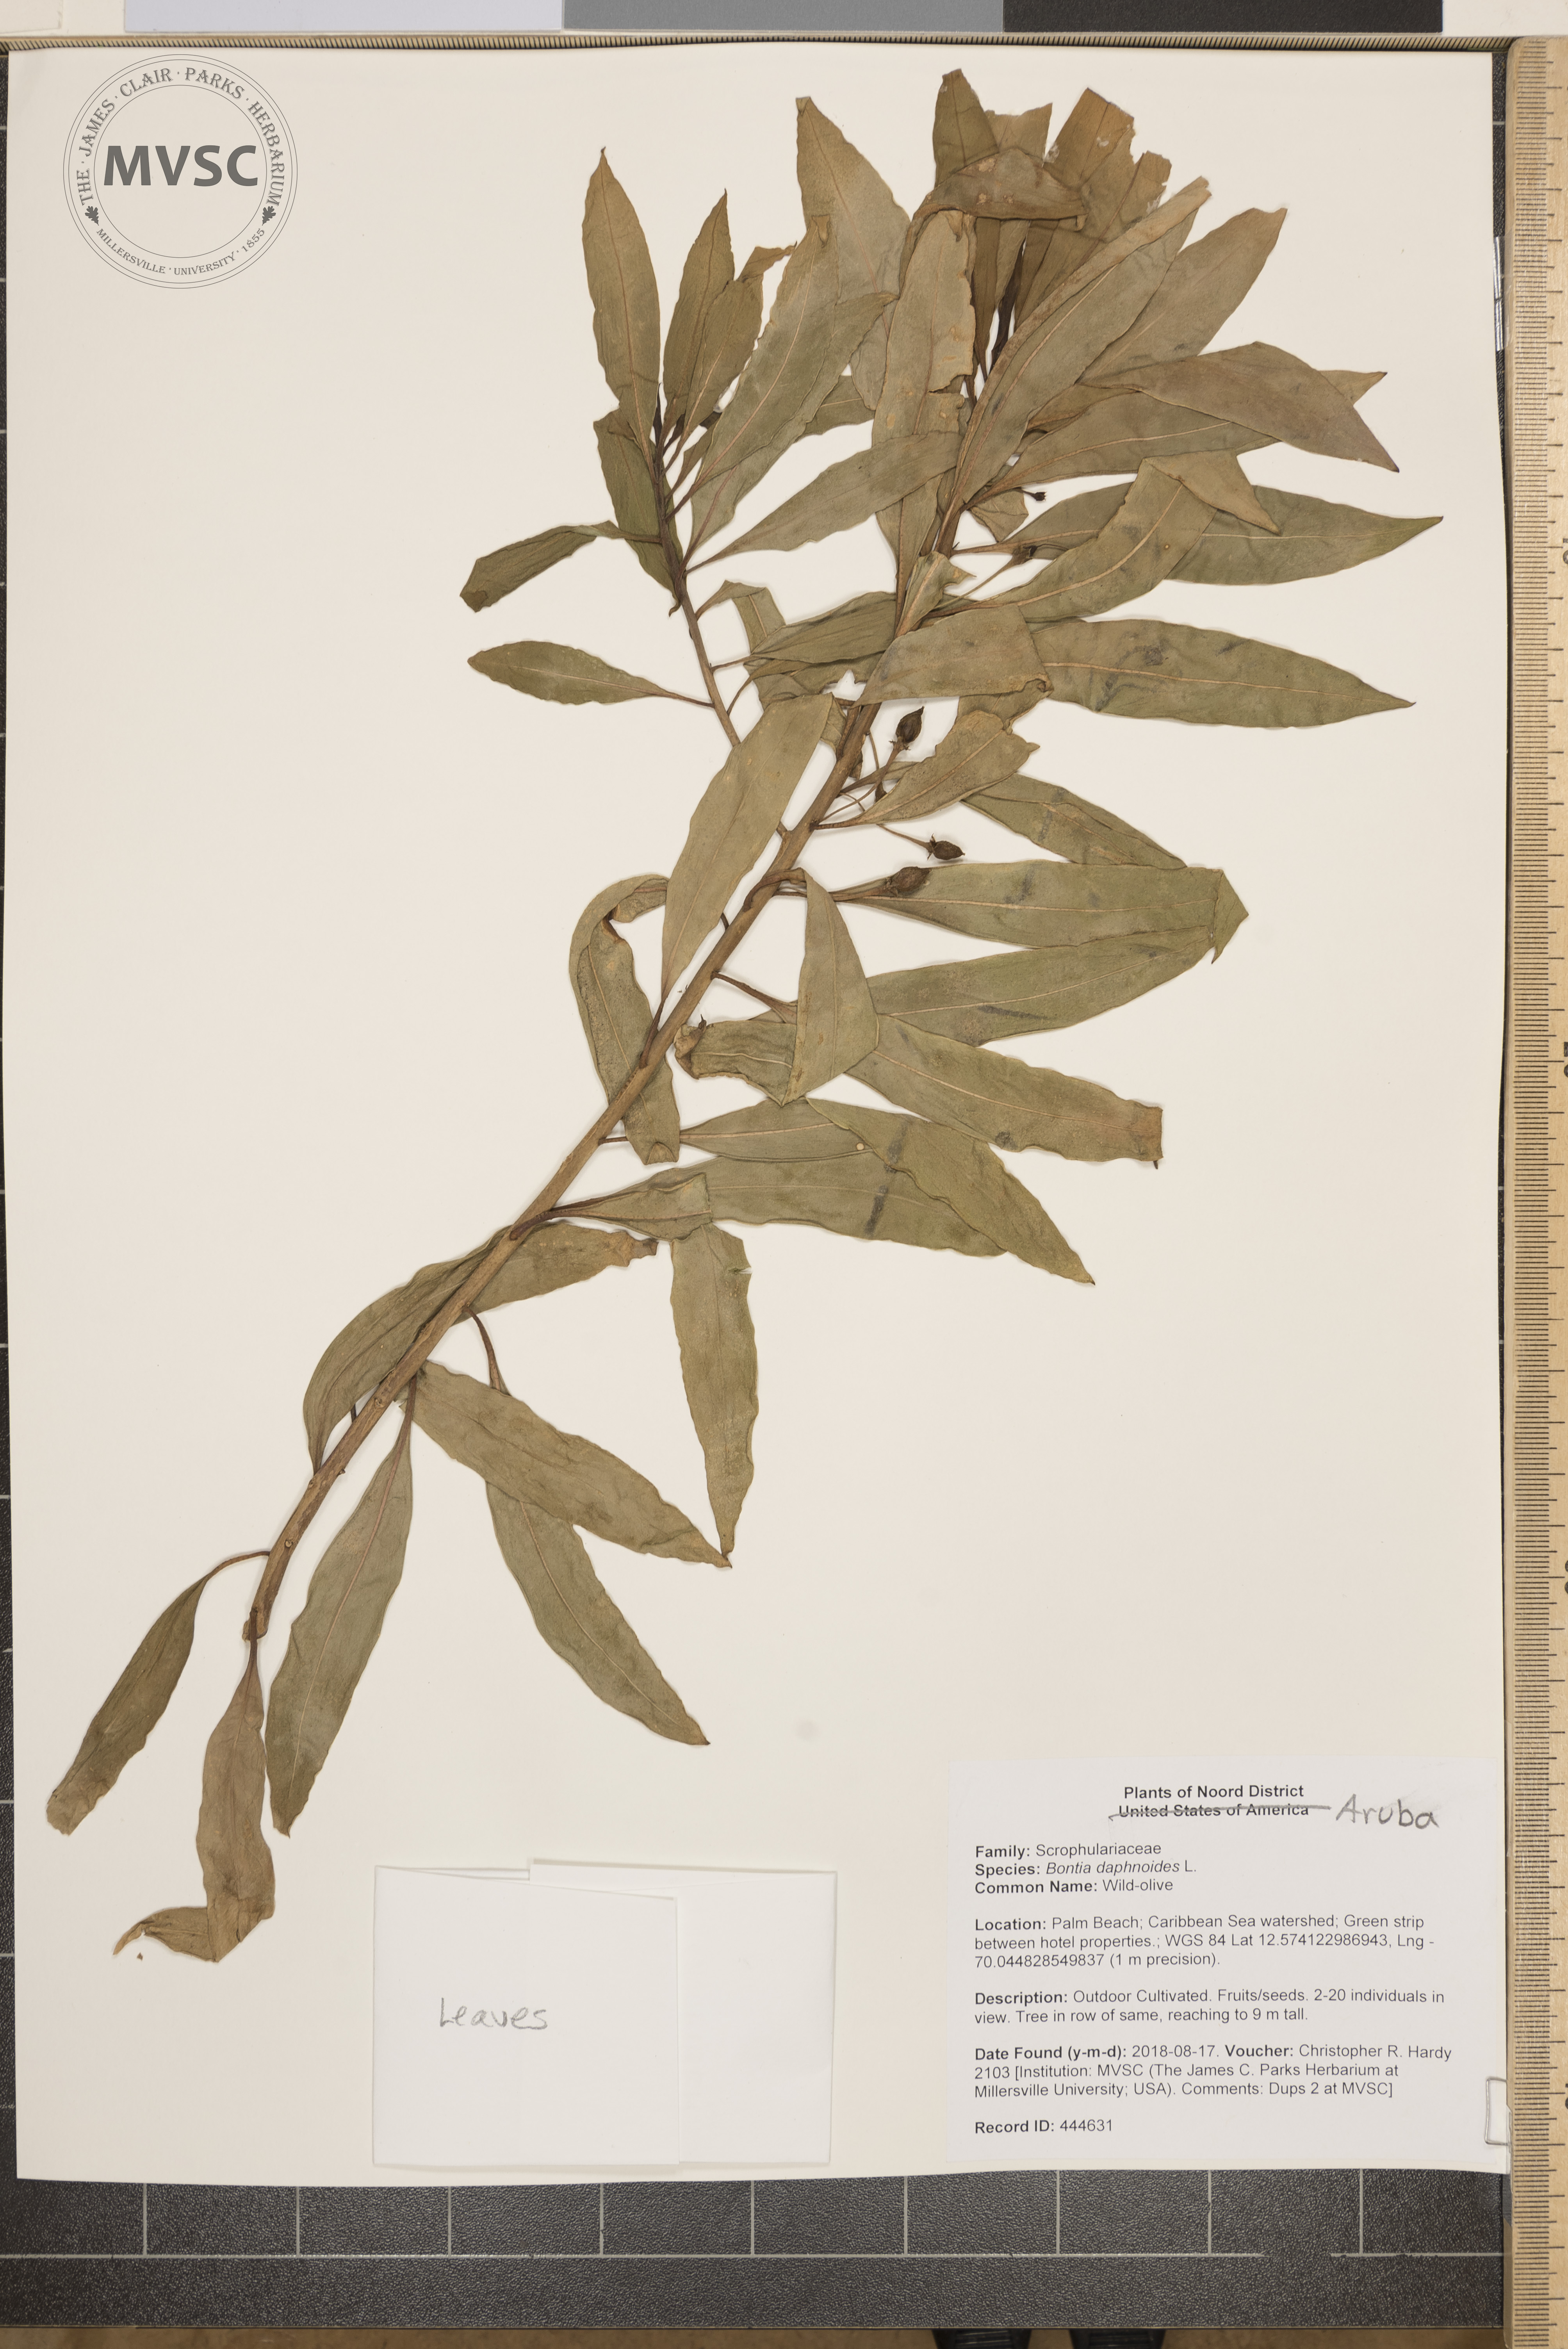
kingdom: Plantae
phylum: Tracheophyta
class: Magnoliopsida
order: Lamiales
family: Scrophulariaceae
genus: Bontia
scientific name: Bontia daphnoides
